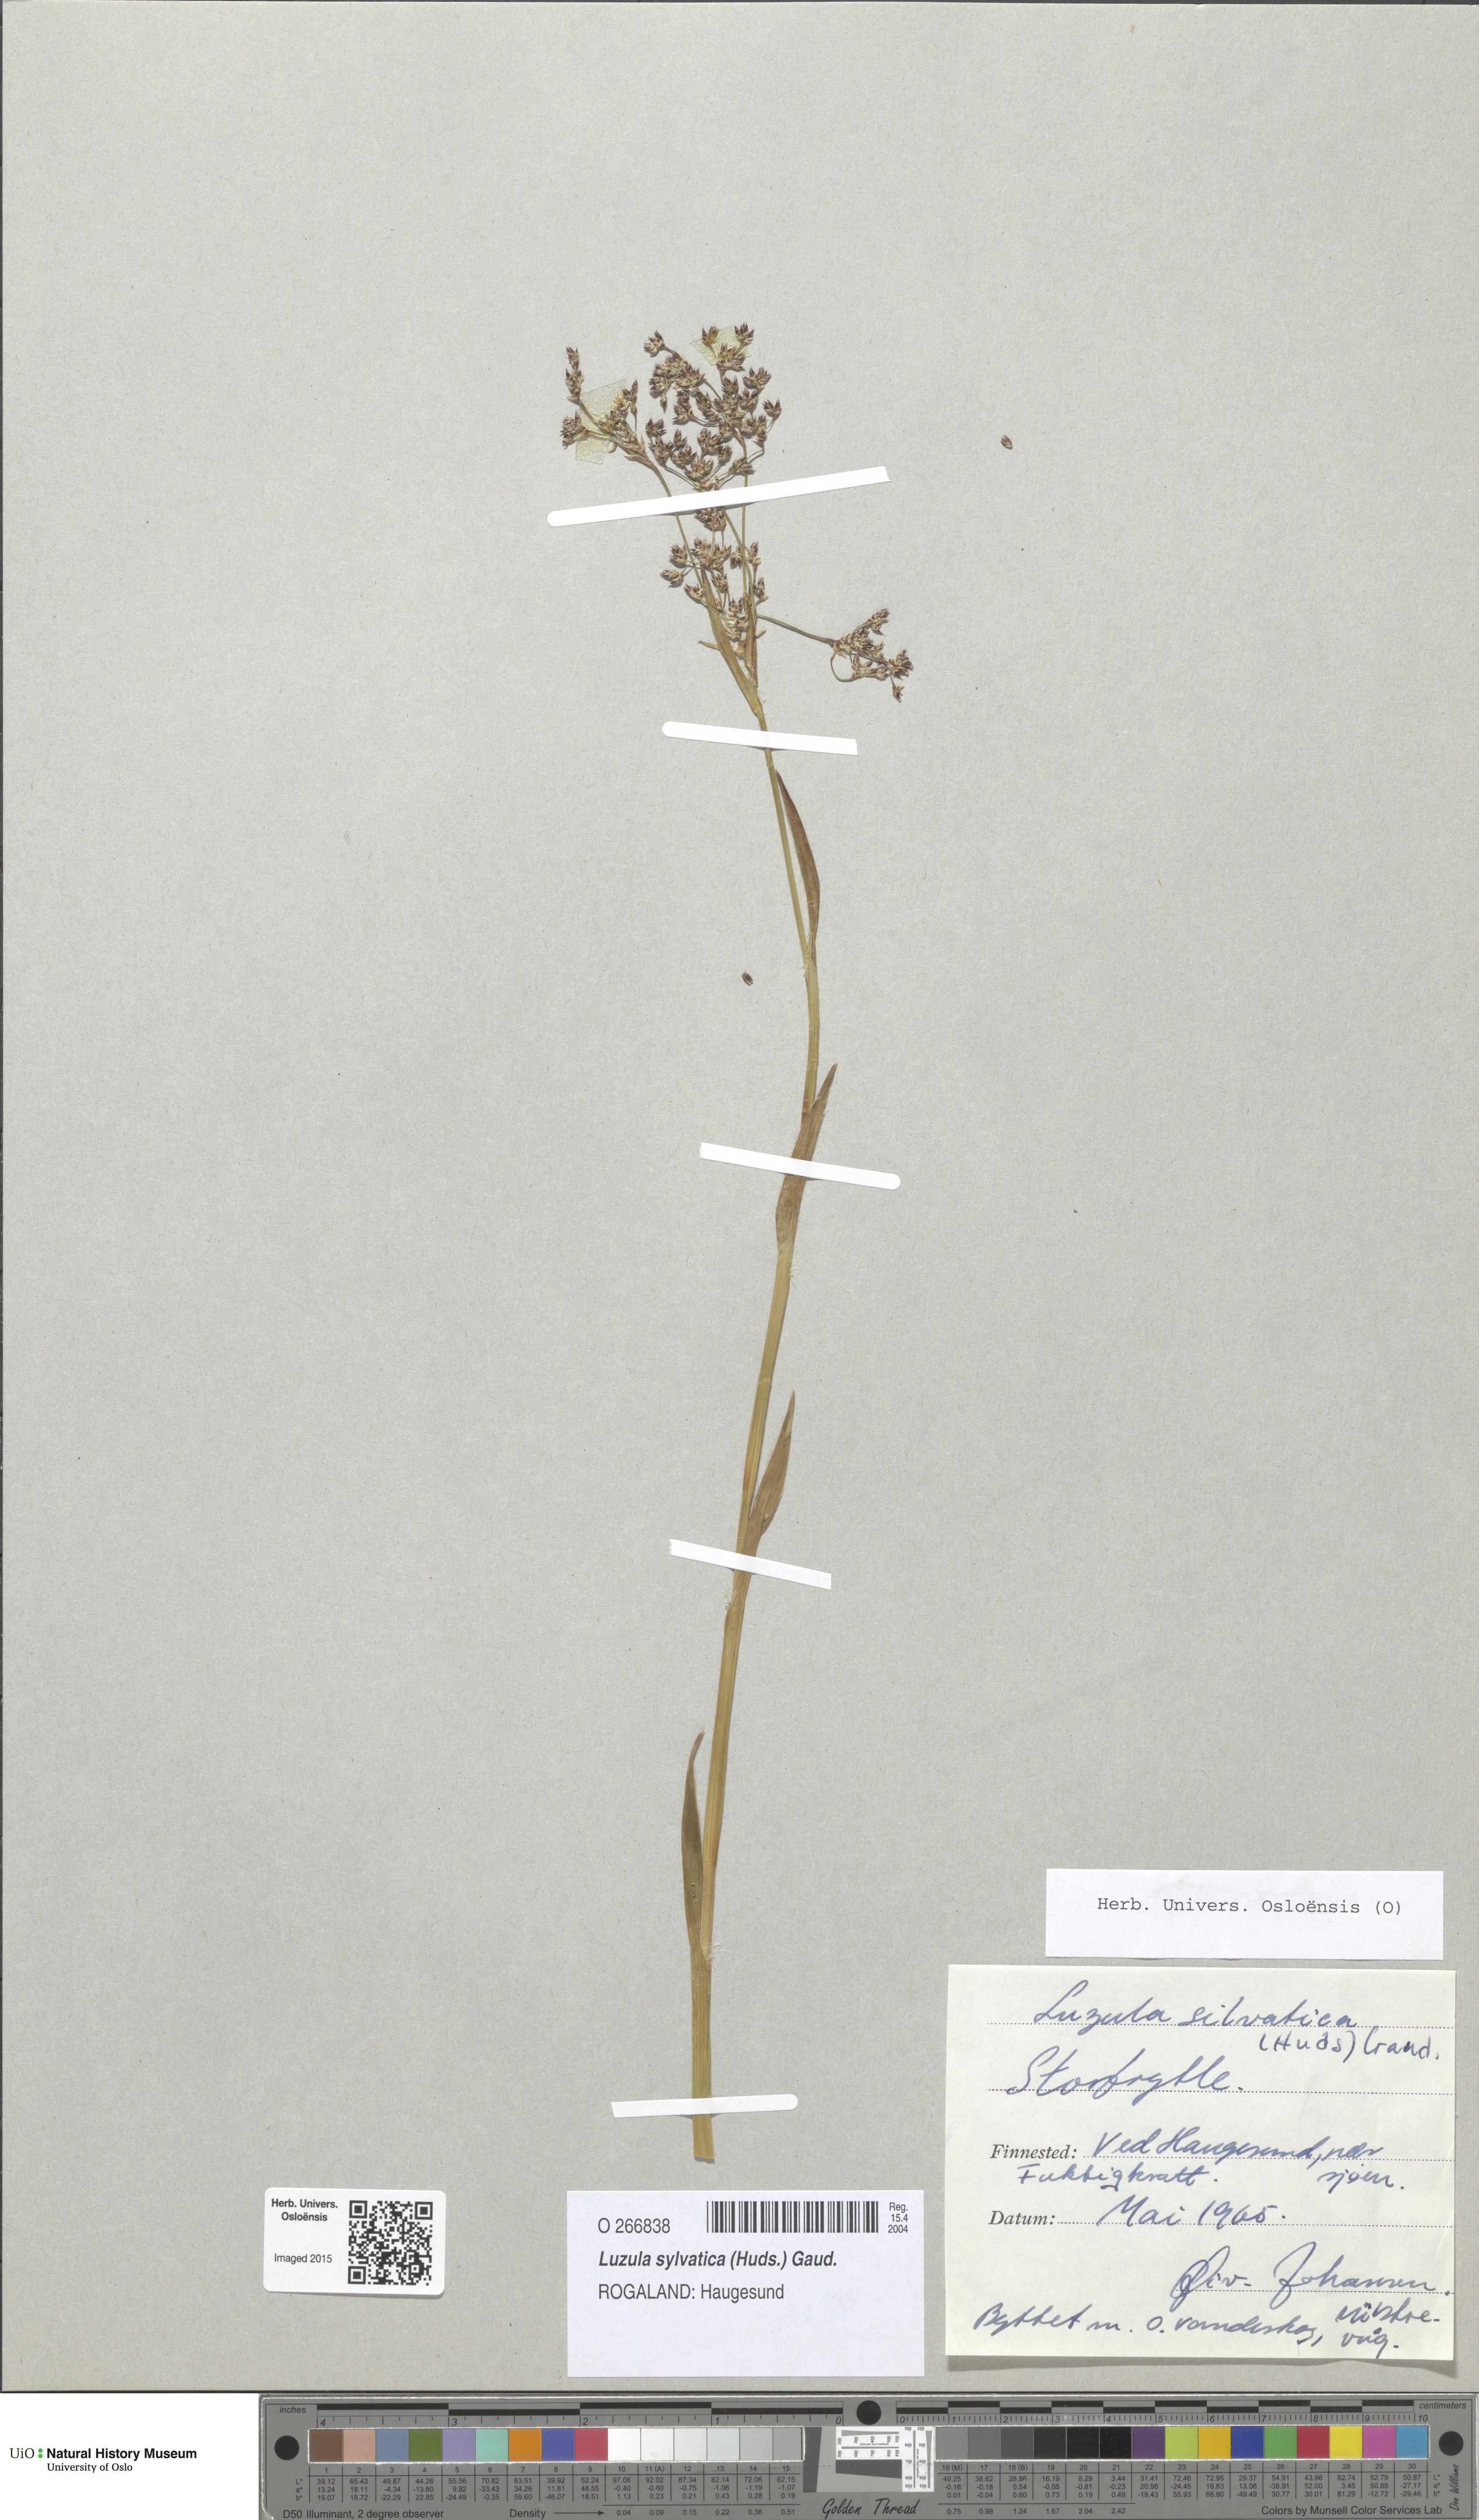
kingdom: Plantae
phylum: Tracheophyta
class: Liliopsida
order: Poales
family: Juncaceae
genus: Luzula
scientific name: Luzula sylvatica
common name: Great wood-rush
